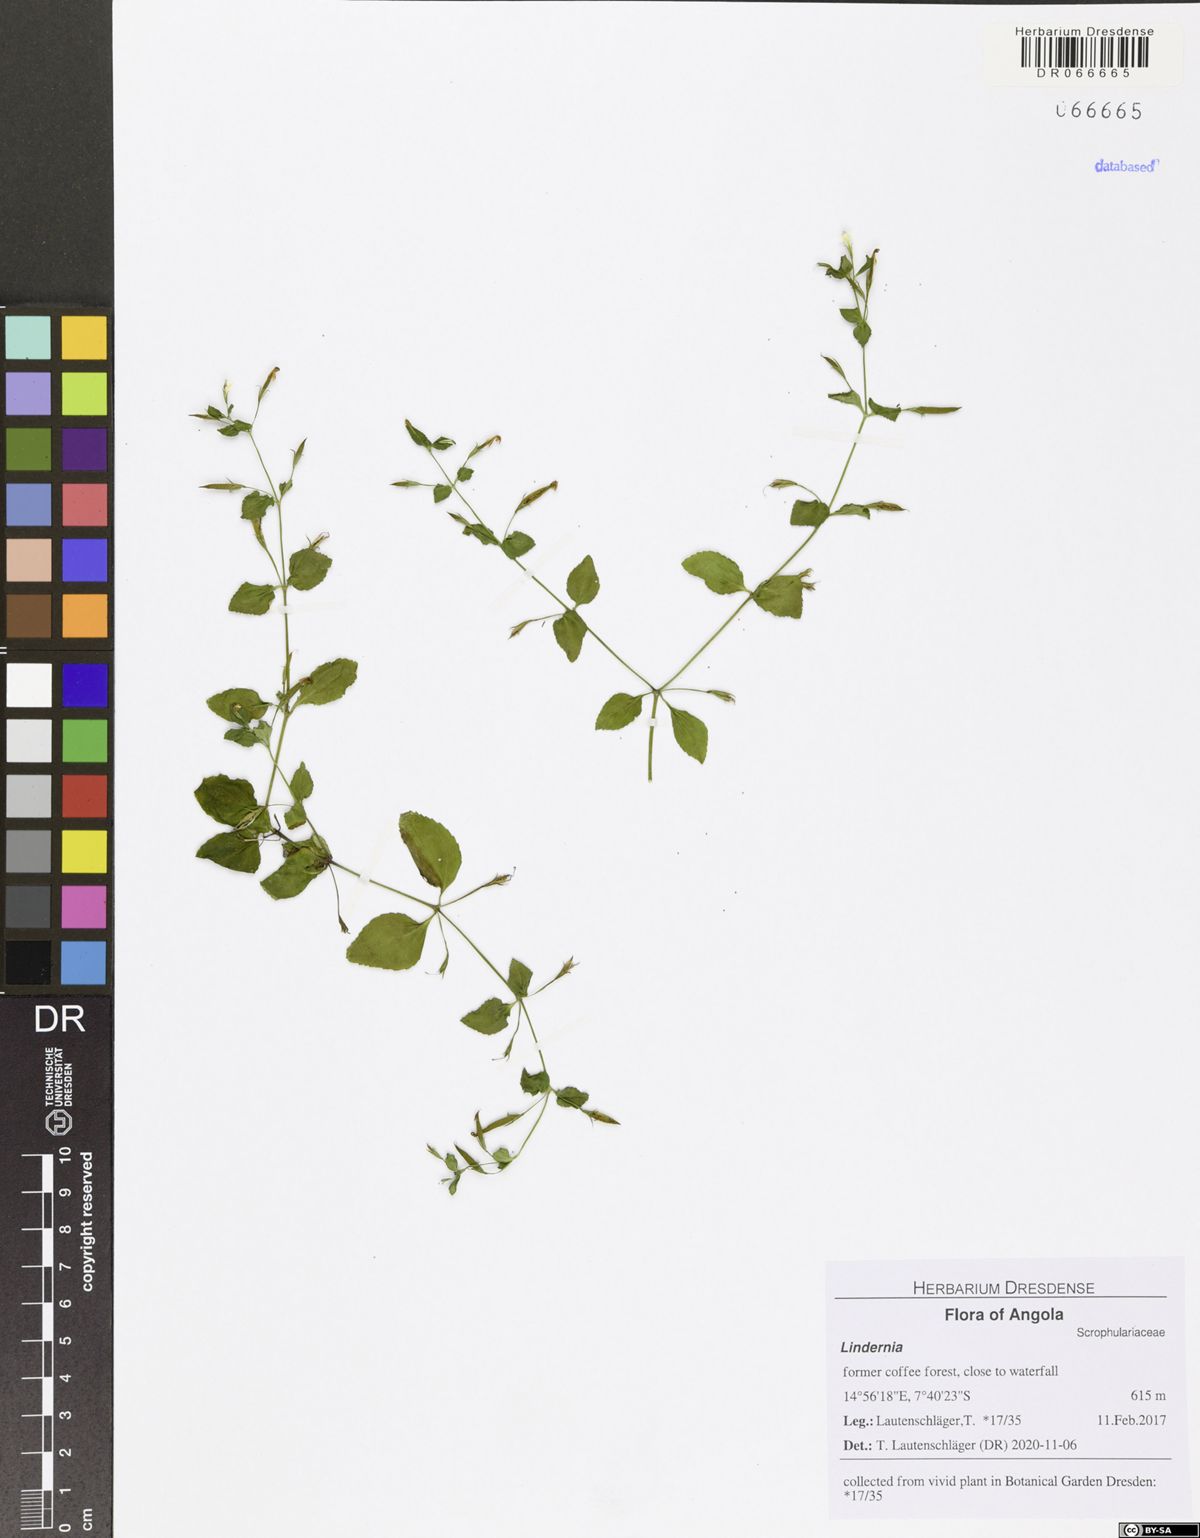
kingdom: Plantae
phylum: Tracheophyta
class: Magnoliopsida
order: Lamiales
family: Linderniaceae
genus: Lindernia
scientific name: Lindernia
